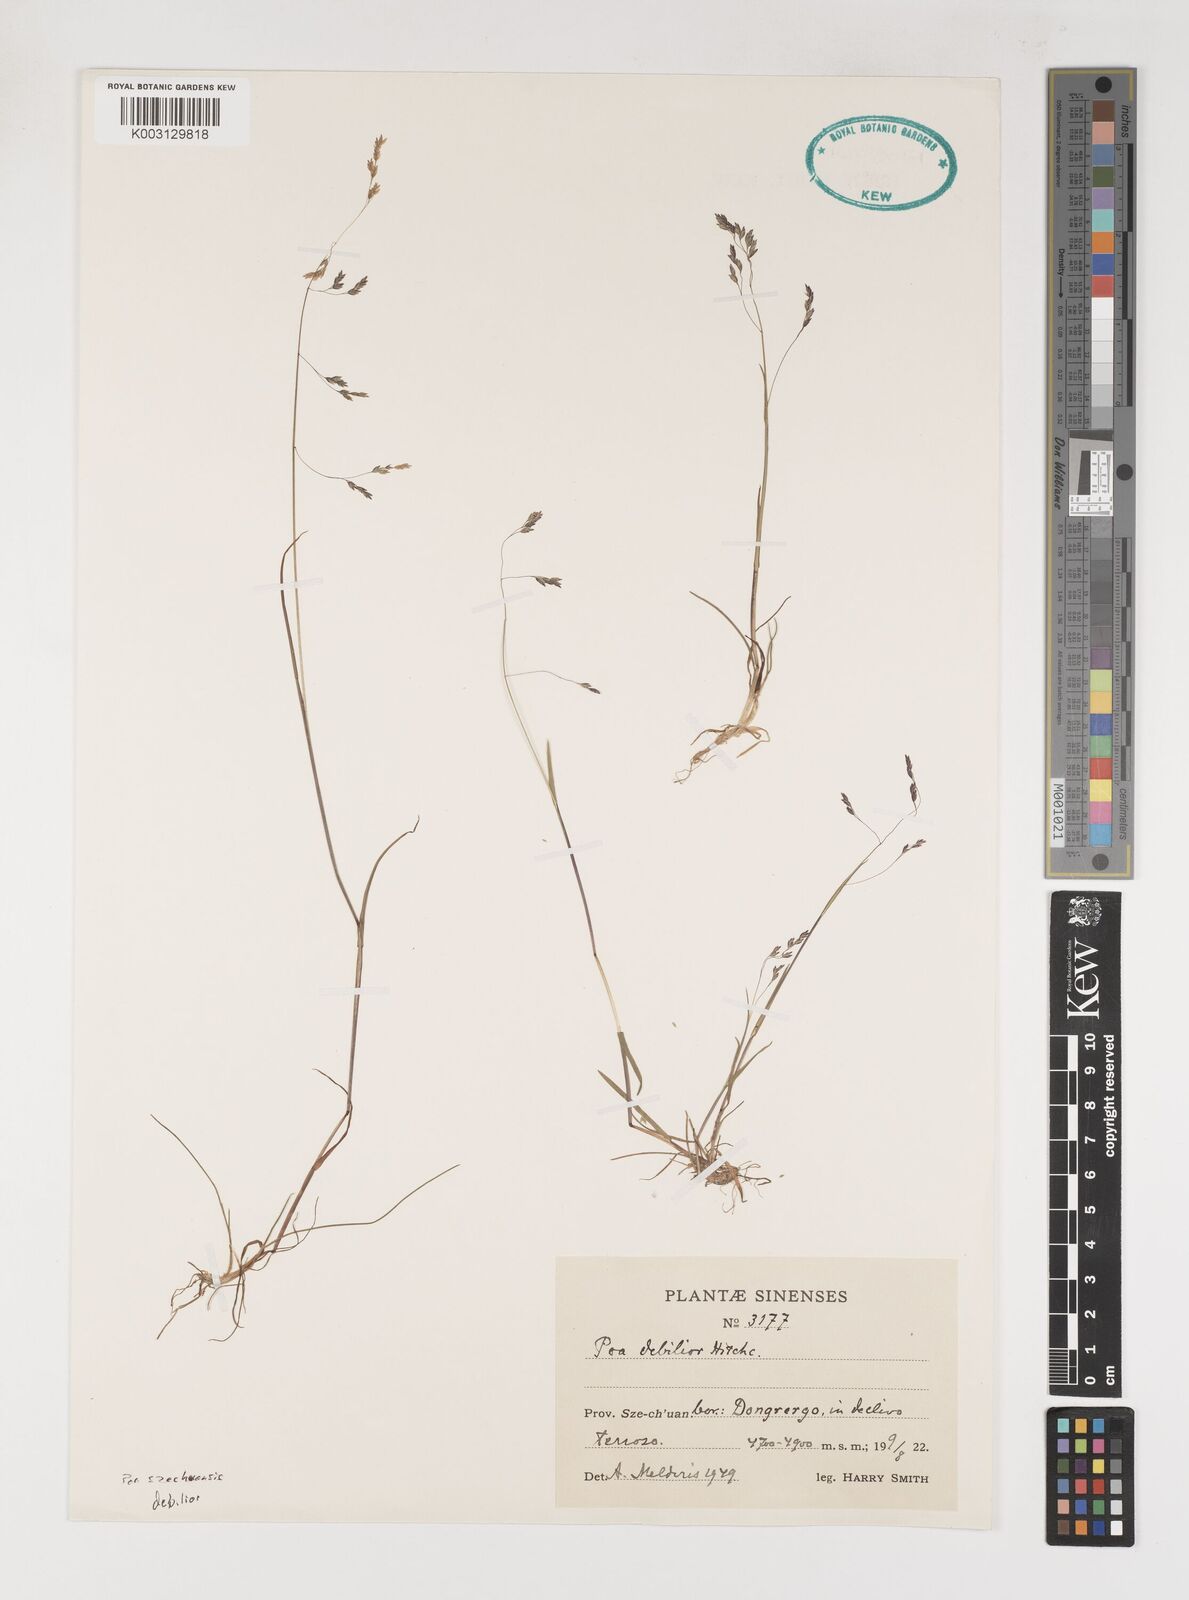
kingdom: Plantae
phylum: Tracheophyta
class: Liliopsida
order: Poales
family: Poaceae
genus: Poa
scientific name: Poa szechuensis
